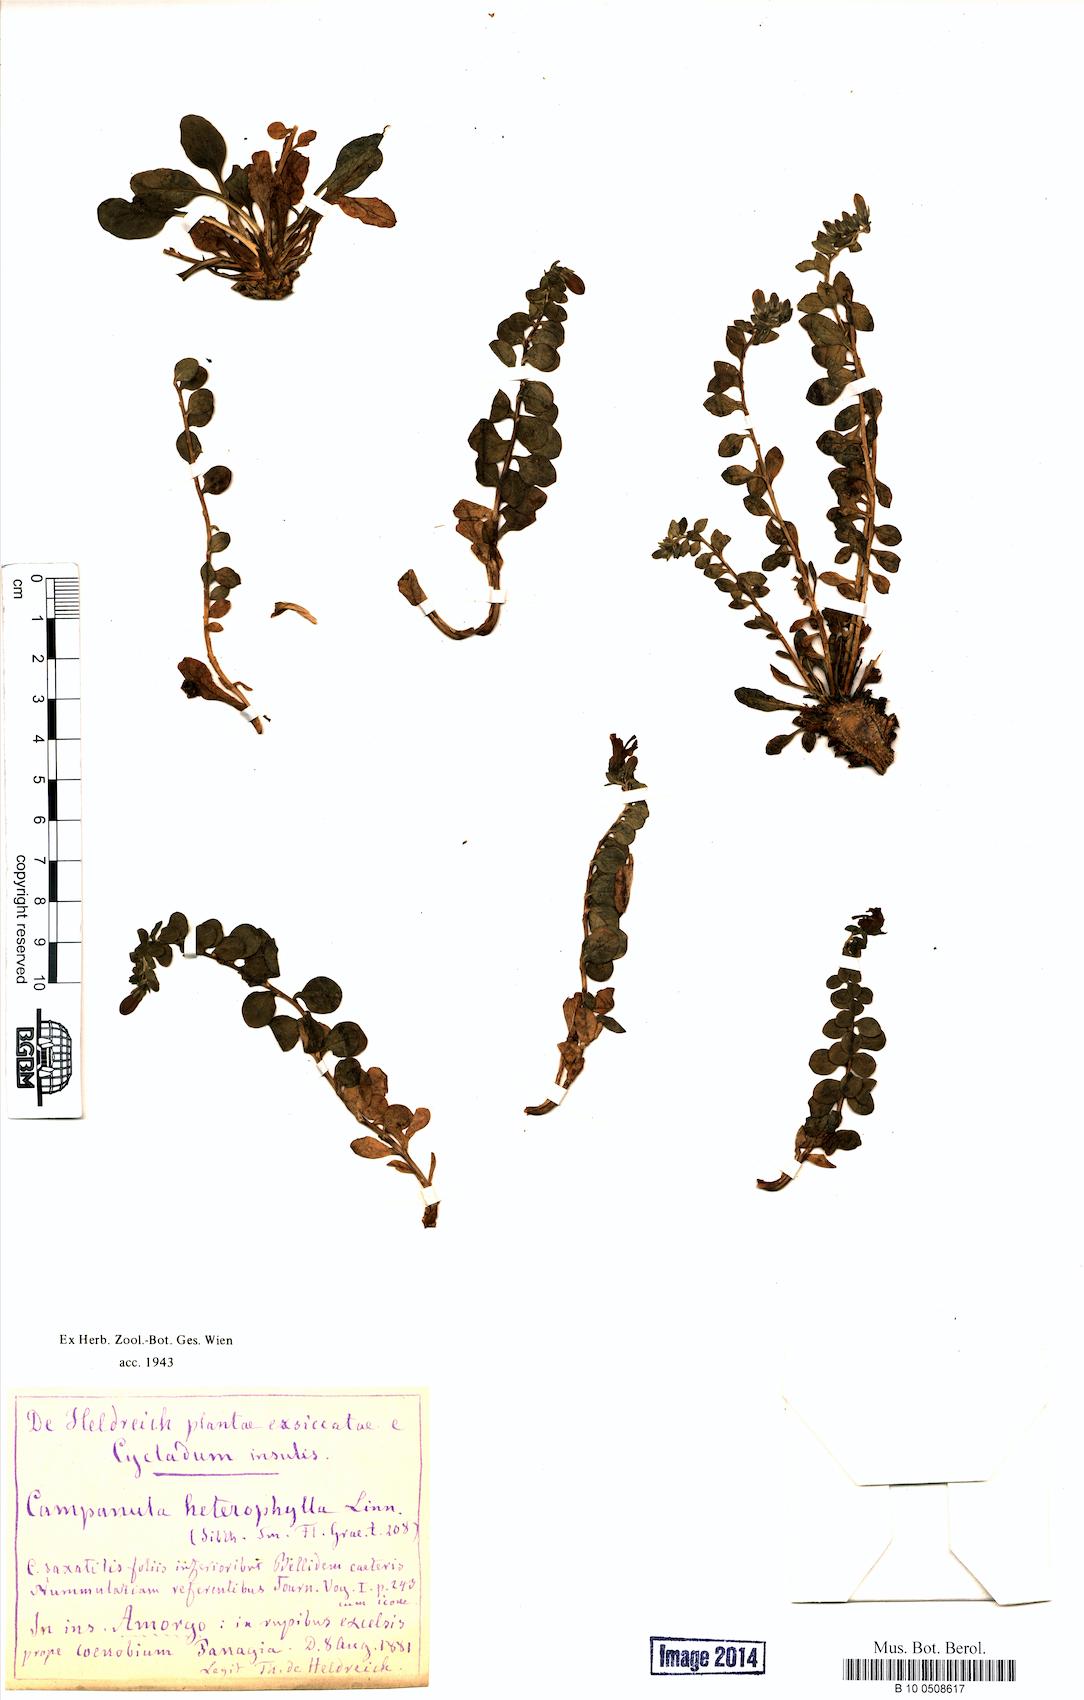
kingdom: Plantae
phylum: Tracheophyta
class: Magnoliopsida
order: Asterales
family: Campanulaceae
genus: Campanula
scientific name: Campanula heterophylla
